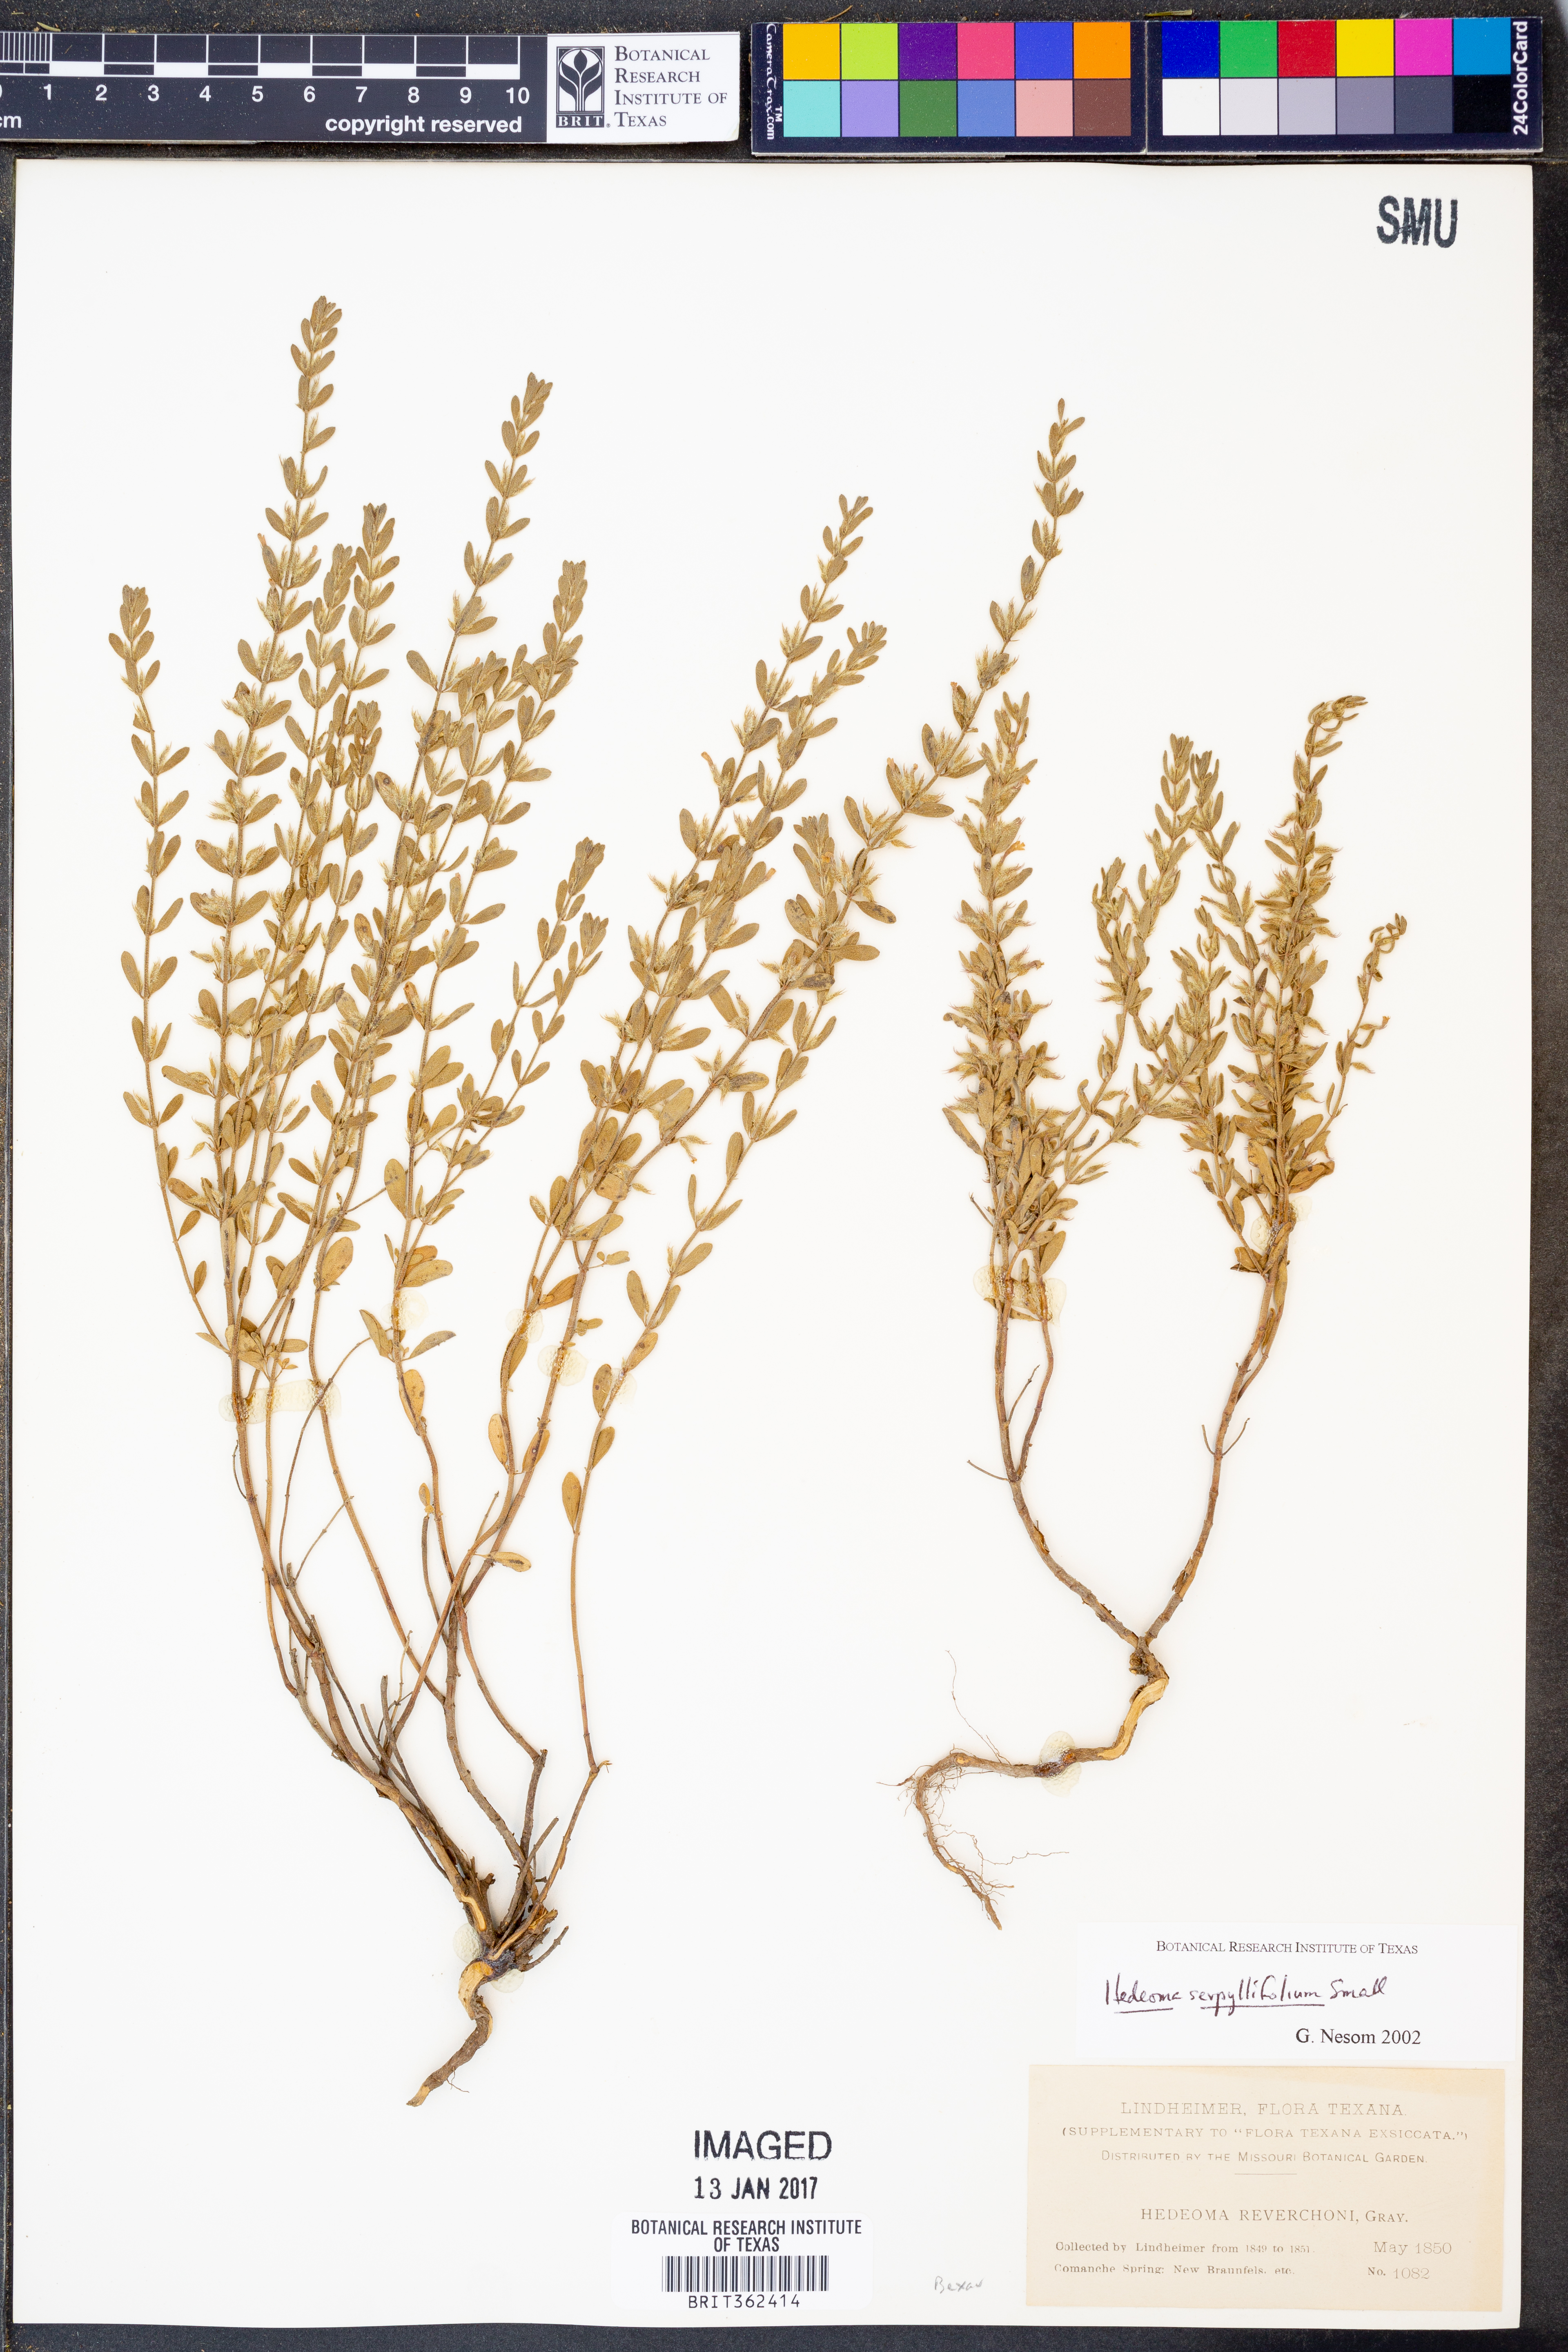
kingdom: Plantae
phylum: Tracheophyta
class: Magnoliopsida
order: Lamiales
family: Lamiaceae
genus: Hedeoma
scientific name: Hedeoma serpyllifolia
